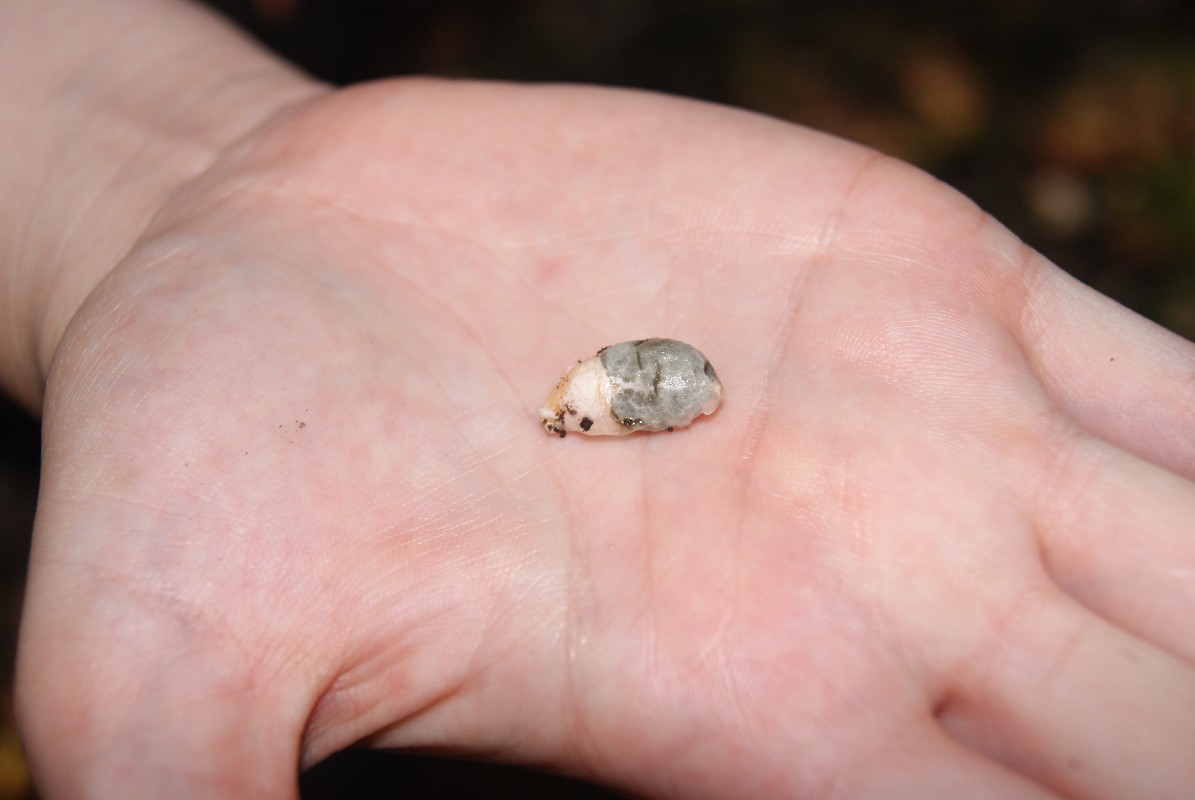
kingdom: Fungi
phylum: Basidiomycota
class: Agaricomycetes
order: Phallales
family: Phallaceae
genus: Mutinus
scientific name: Mutinus caninus
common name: hunde-stinksvamp
